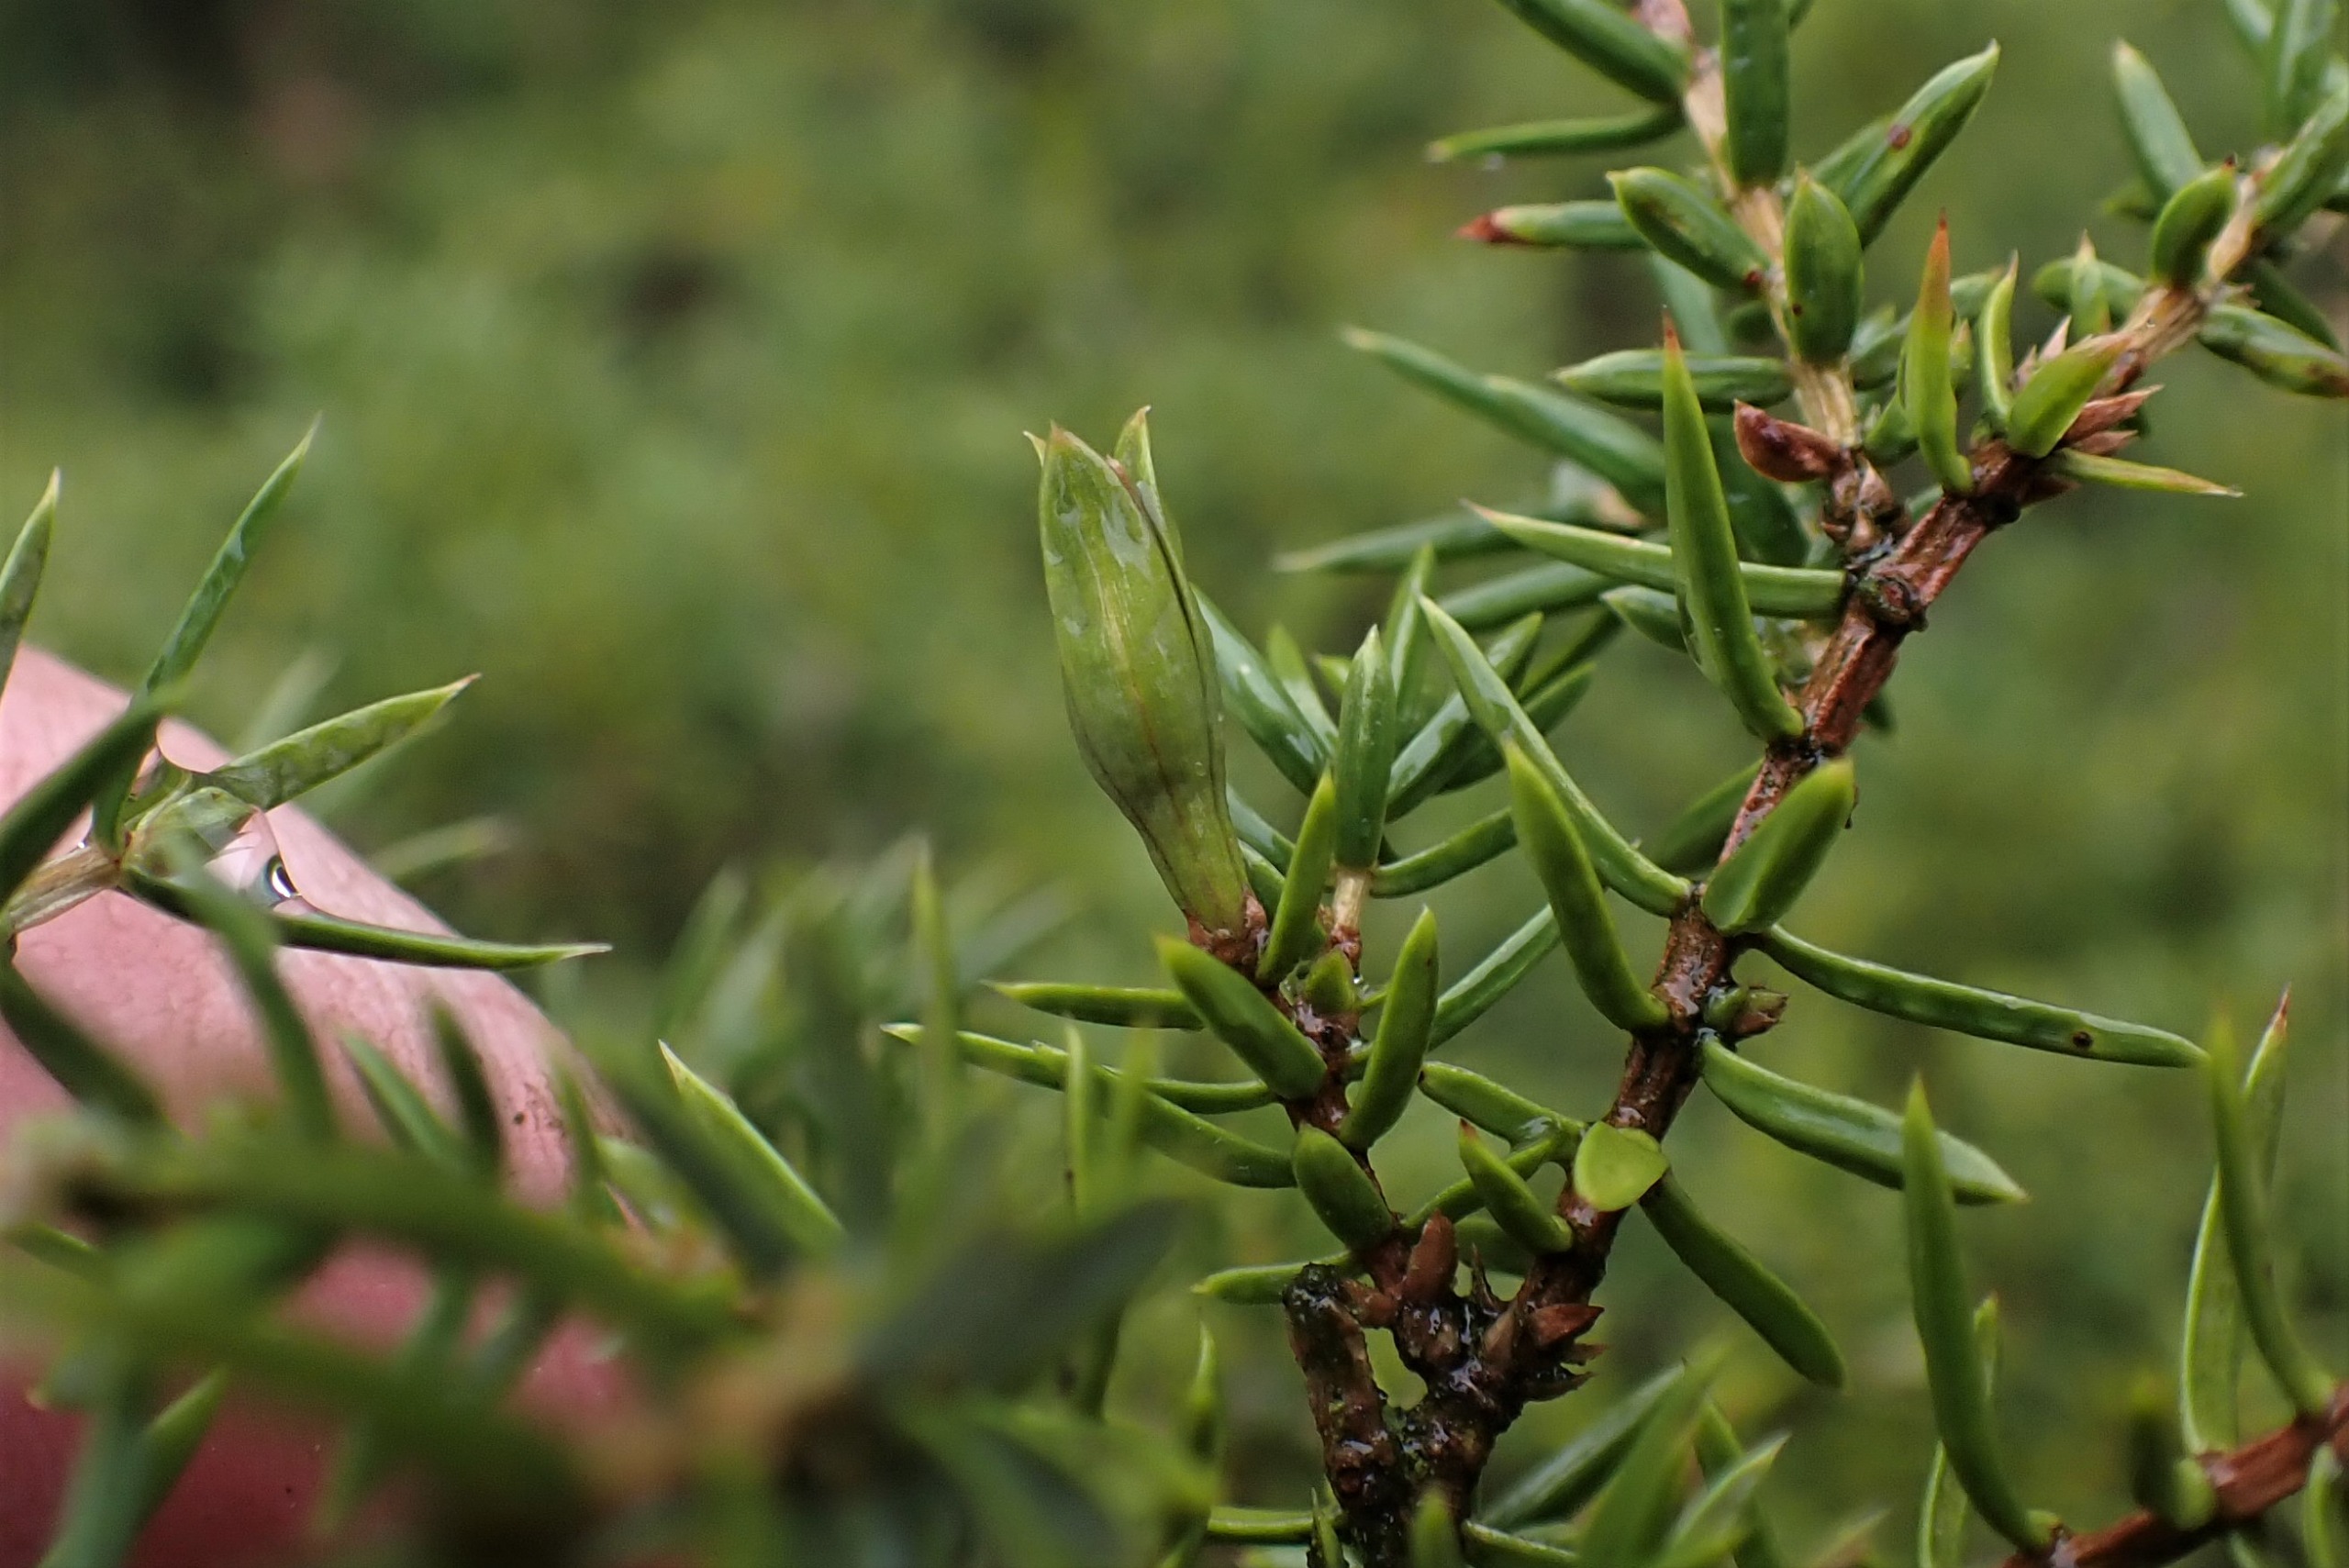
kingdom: Animalia
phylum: Arthropoda
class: Insecta
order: Diptera
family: Cecidomyiidae
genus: Oligotrophus
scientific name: Oligotrophus juniperinus
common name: Kikbærgalmyg
